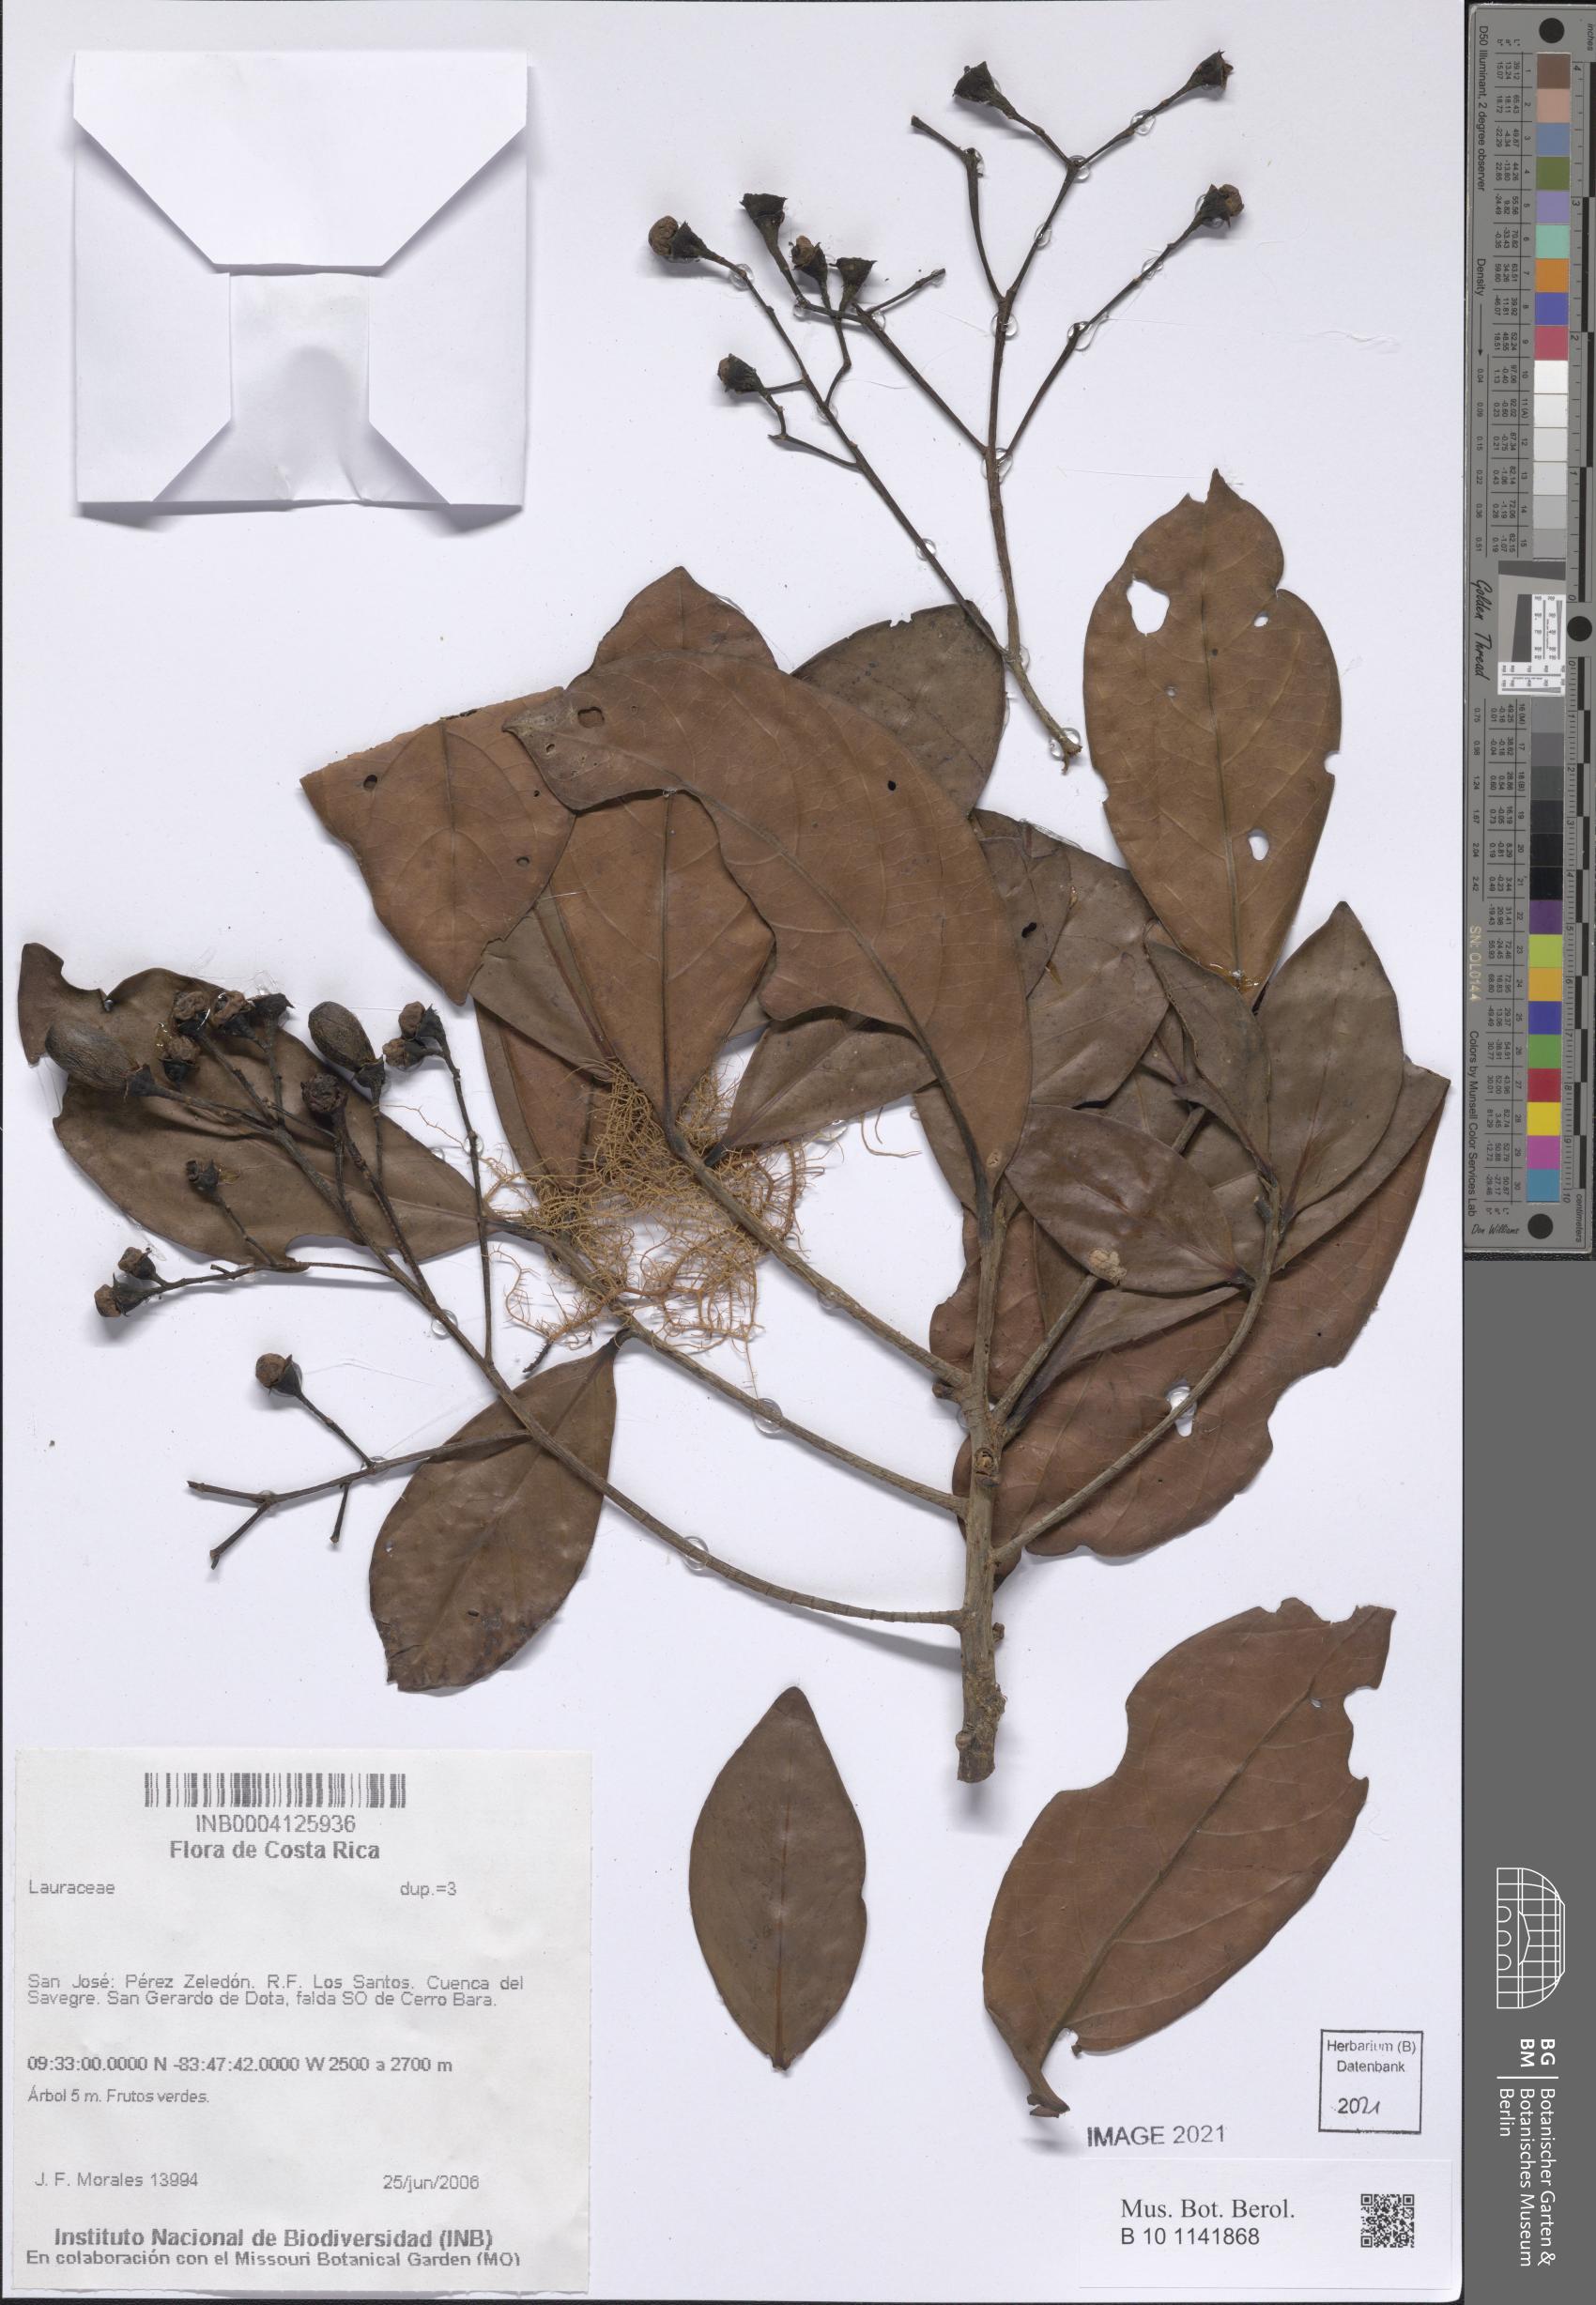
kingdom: Plantae
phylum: Tracheophyta
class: Magnoliopsida
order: Laurales
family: Lauraceae
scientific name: Lauraceae
